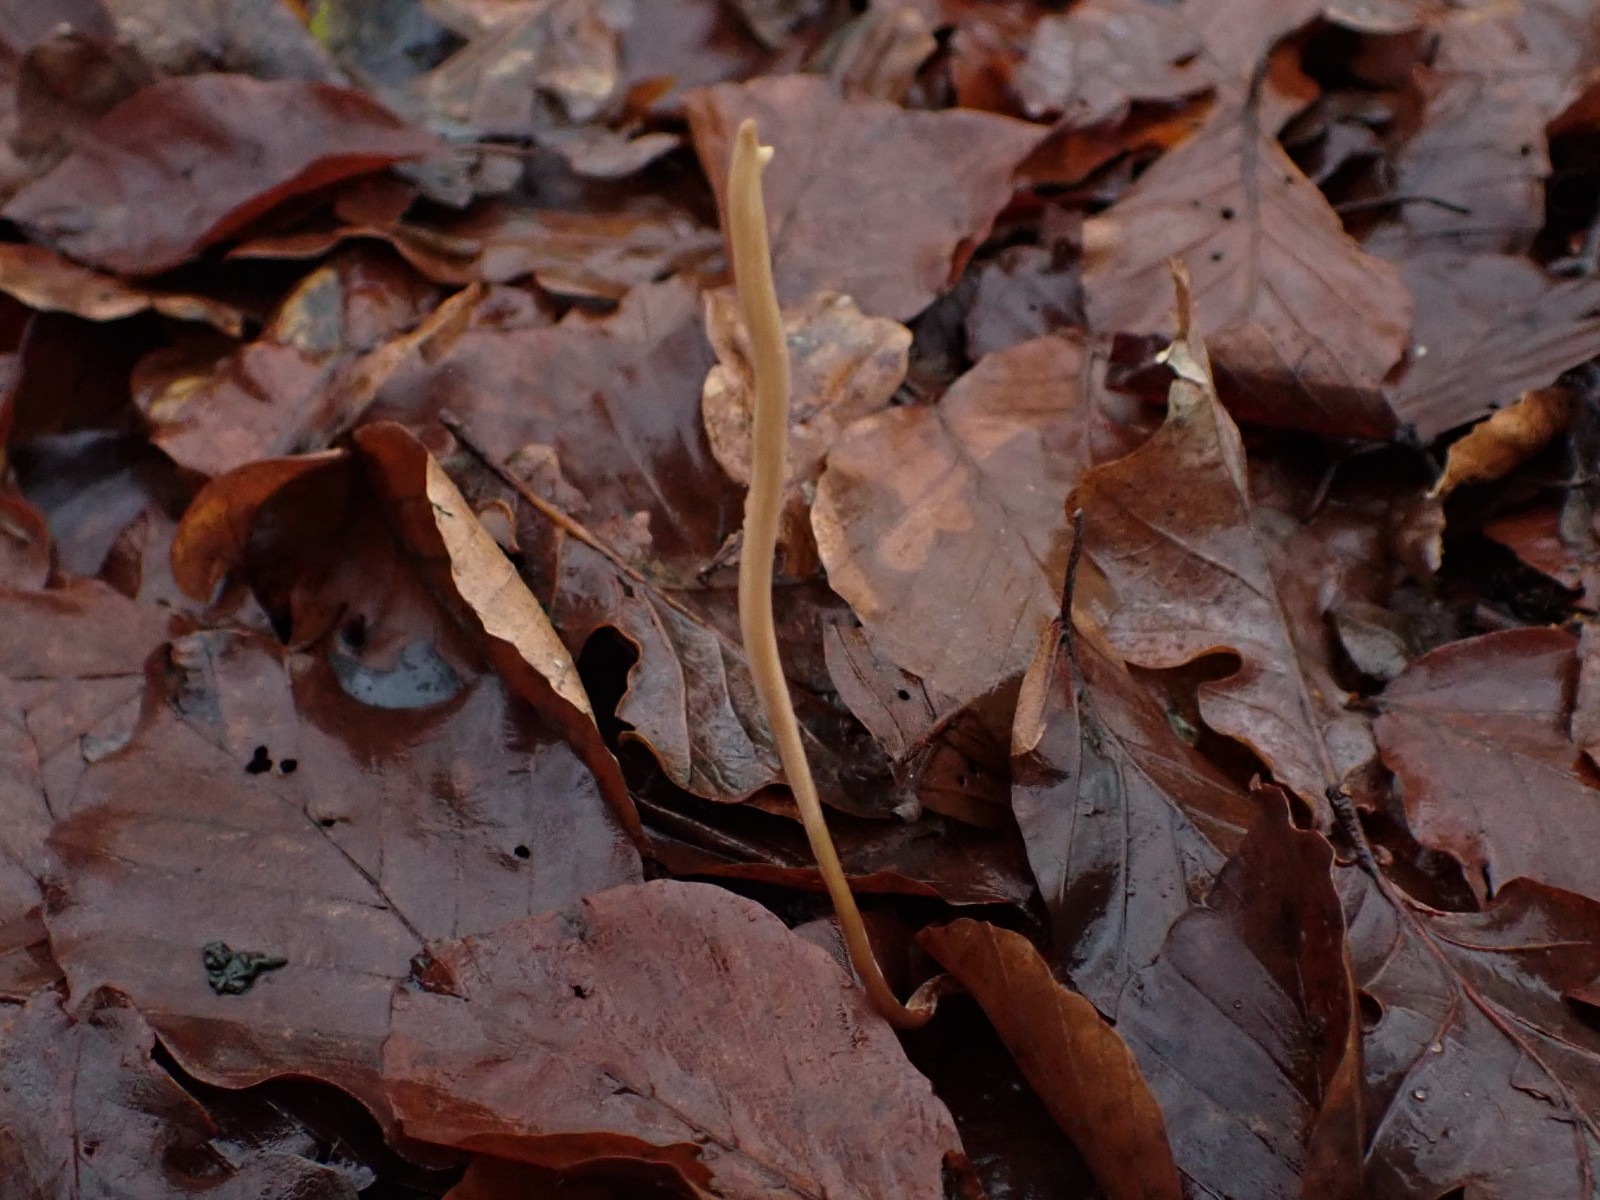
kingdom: Fungi
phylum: Basidiomycota
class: Agaricomycetes
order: Agaricales
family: Typhulaceae
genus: Typhula
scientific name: Typhula fistulosa
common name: pibet rørkølle
